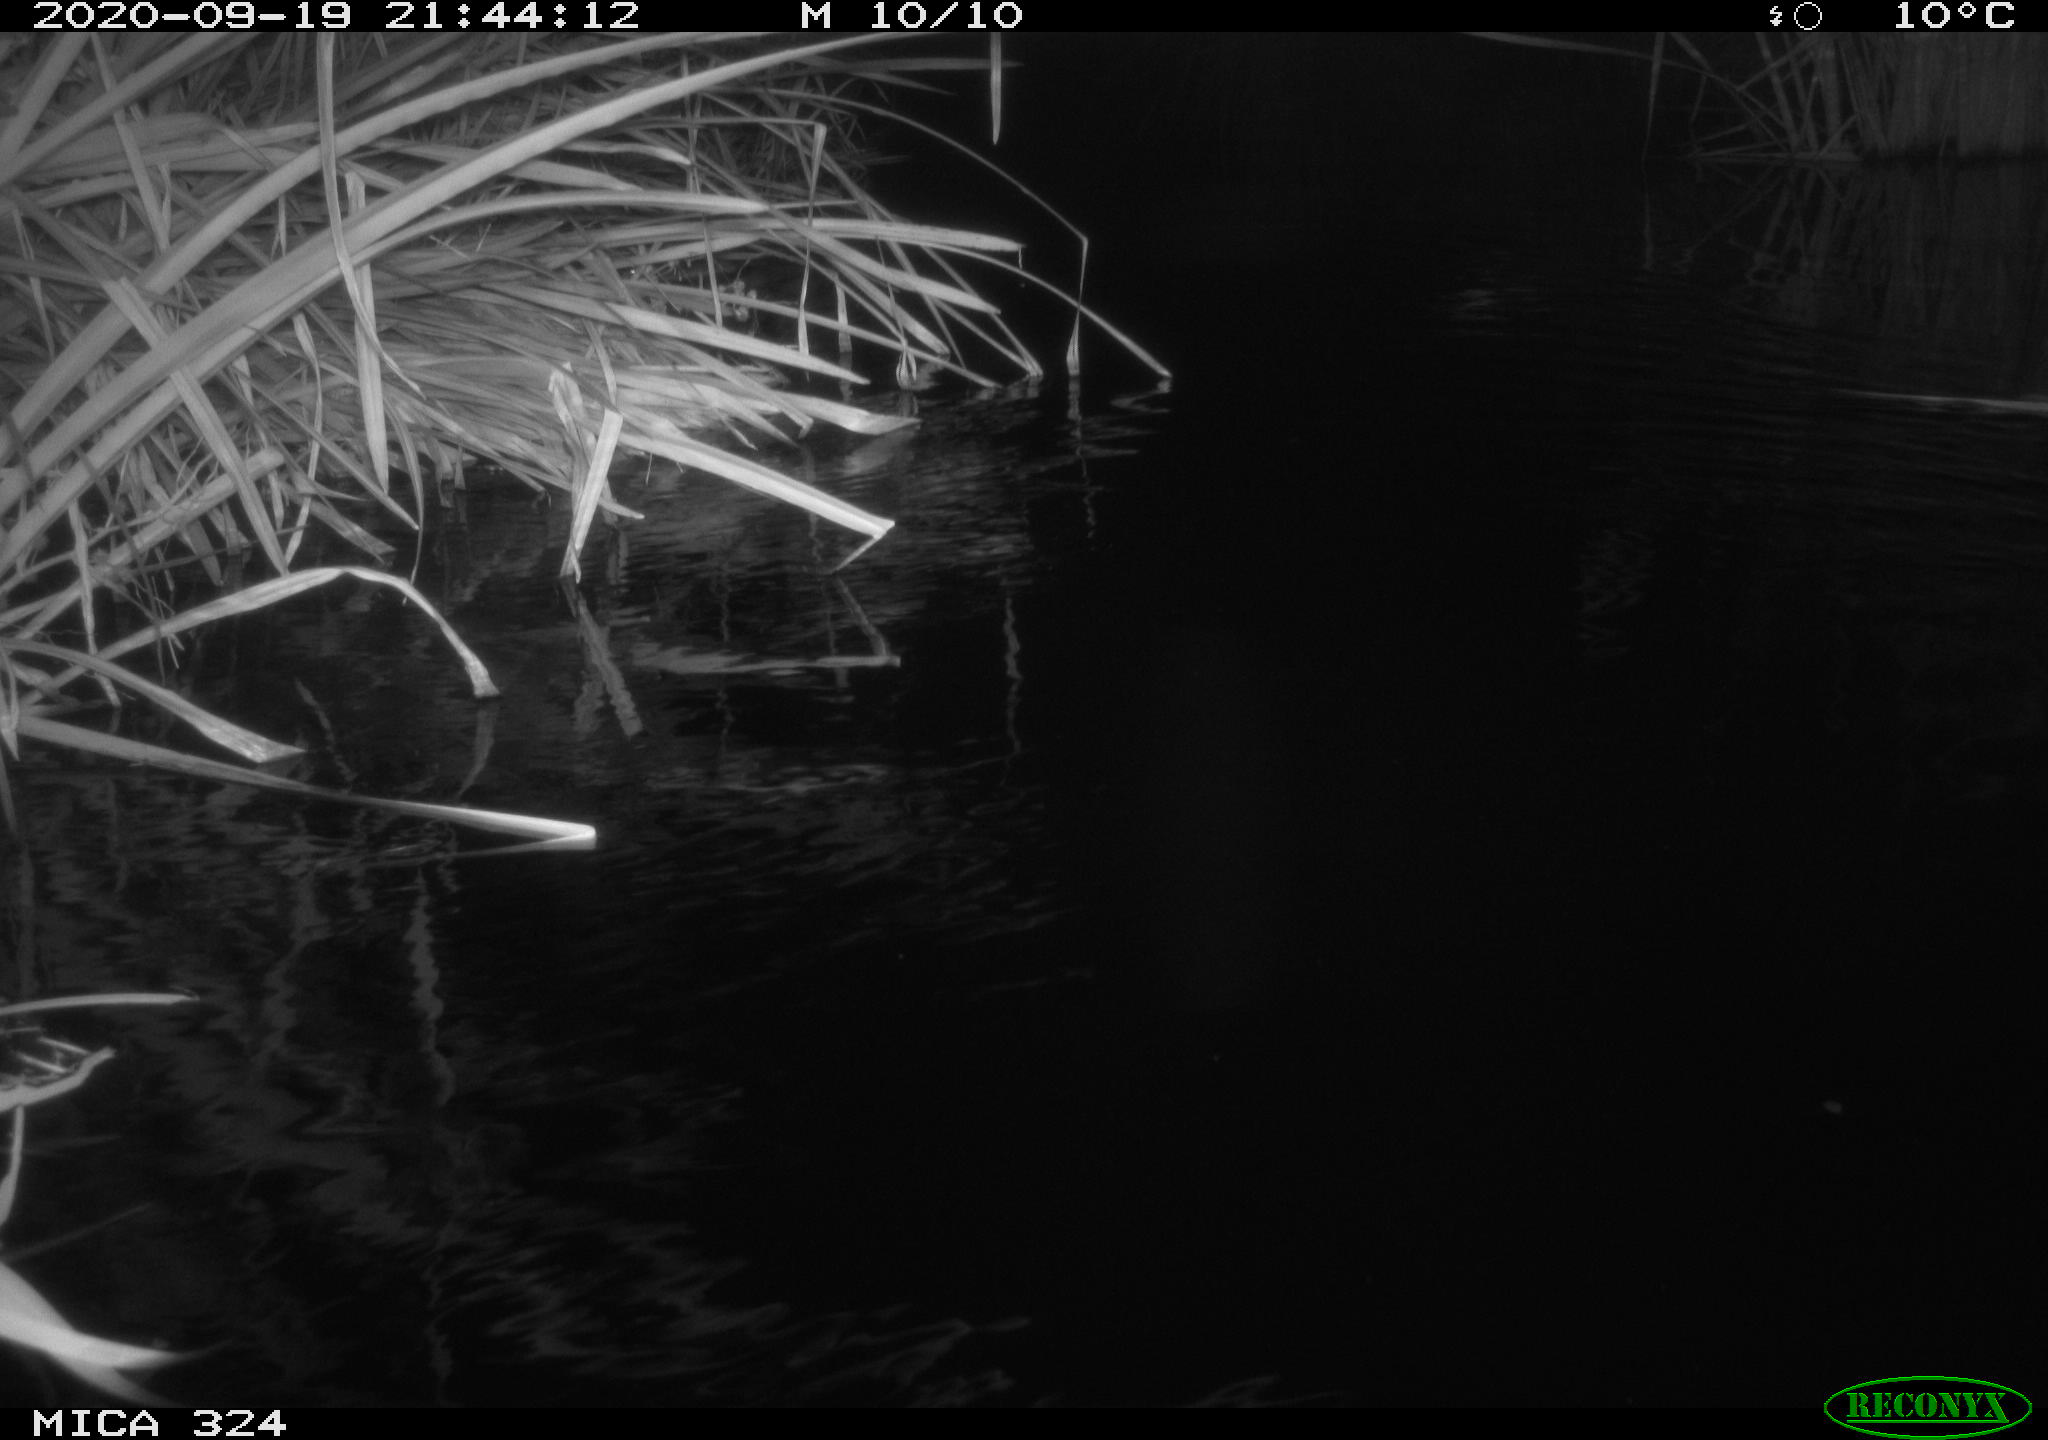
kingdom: Animalia
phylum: Chordata
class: Mammalia
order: Rodentia
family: Cricetidae
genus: Ondatra
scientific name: Ondatra zibethicus
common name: Muskrat
